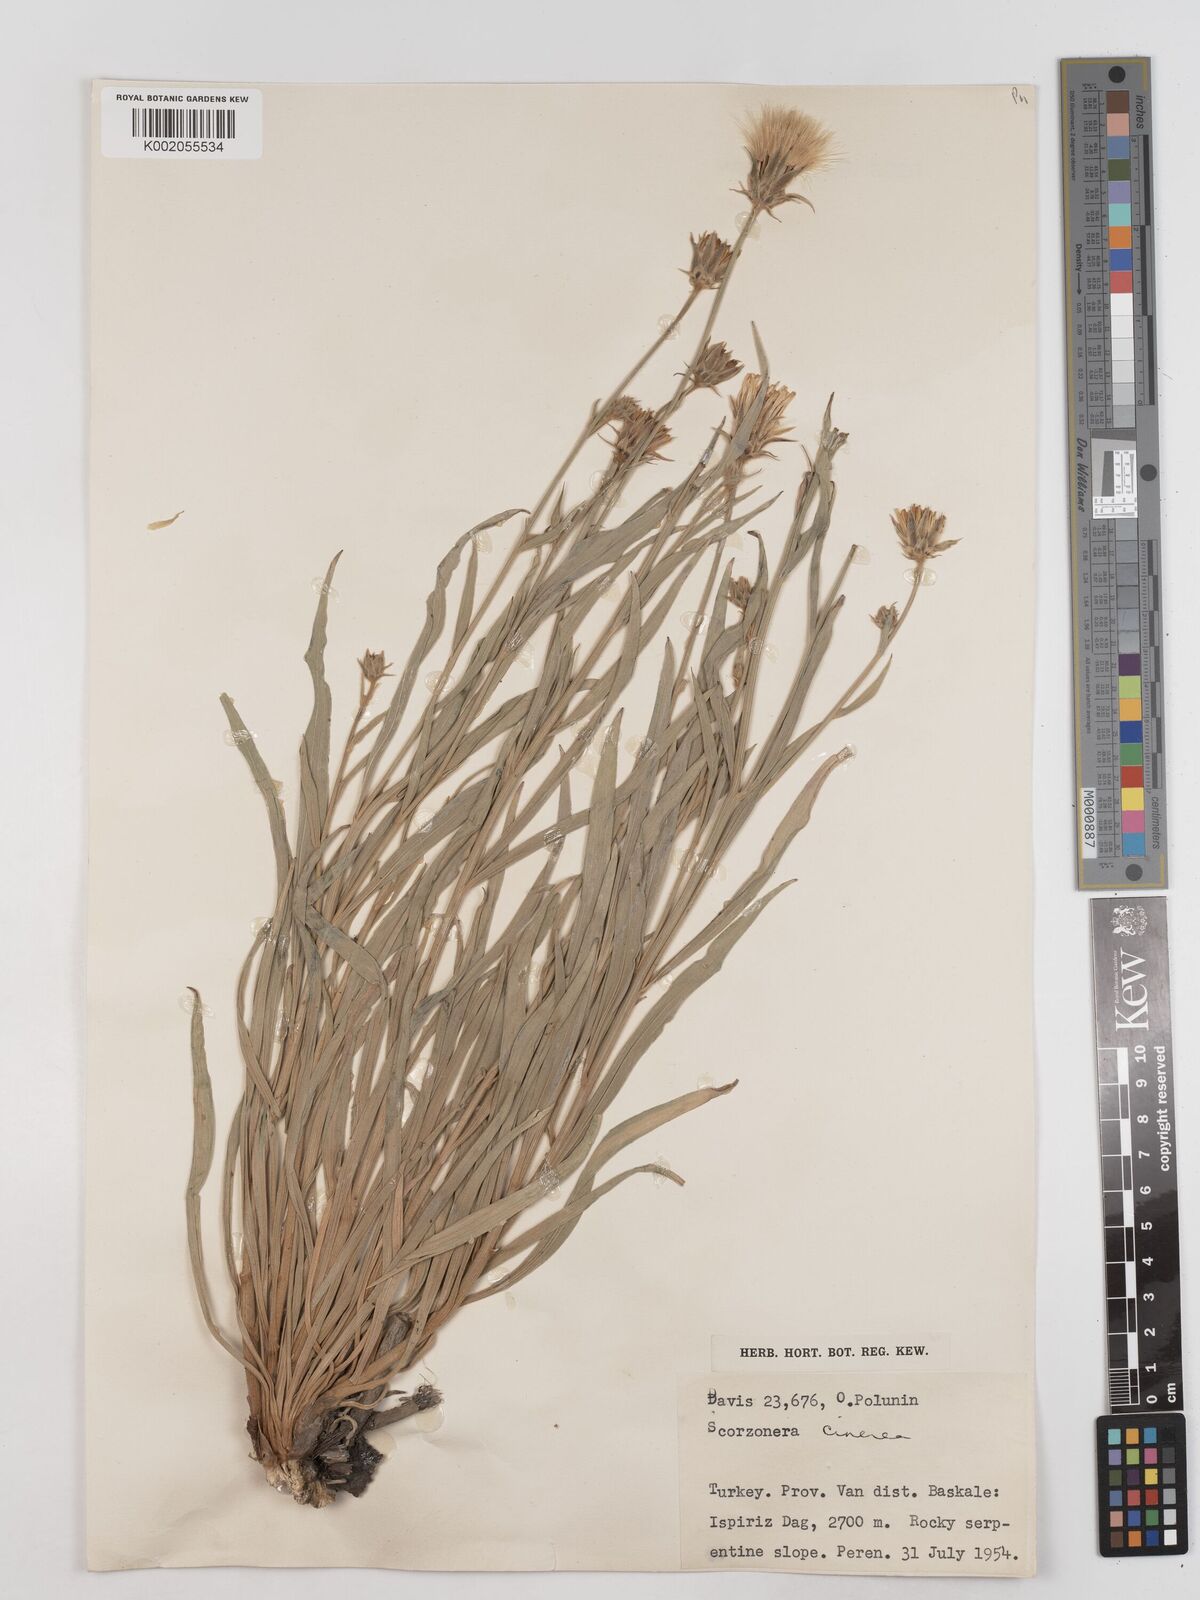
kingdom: Plantae
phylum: Tracheophyta
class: Magnoliopsida
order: Asterales
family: Asteraceae
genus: Cigdemia
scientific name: Cigdemia cinerea
